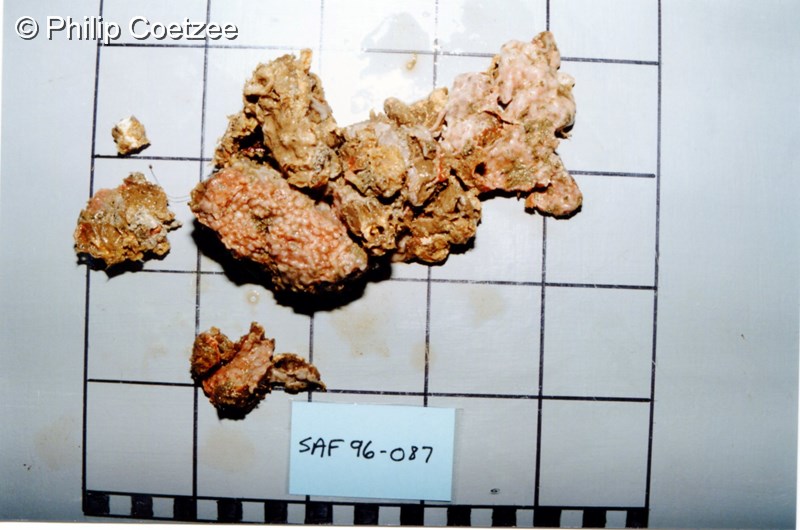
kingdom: Animalia
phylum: Porifera
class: Demospongiae
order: Chondrosiida
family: Chondrosiidae
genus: Chondrosia
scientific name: Chondrosia
